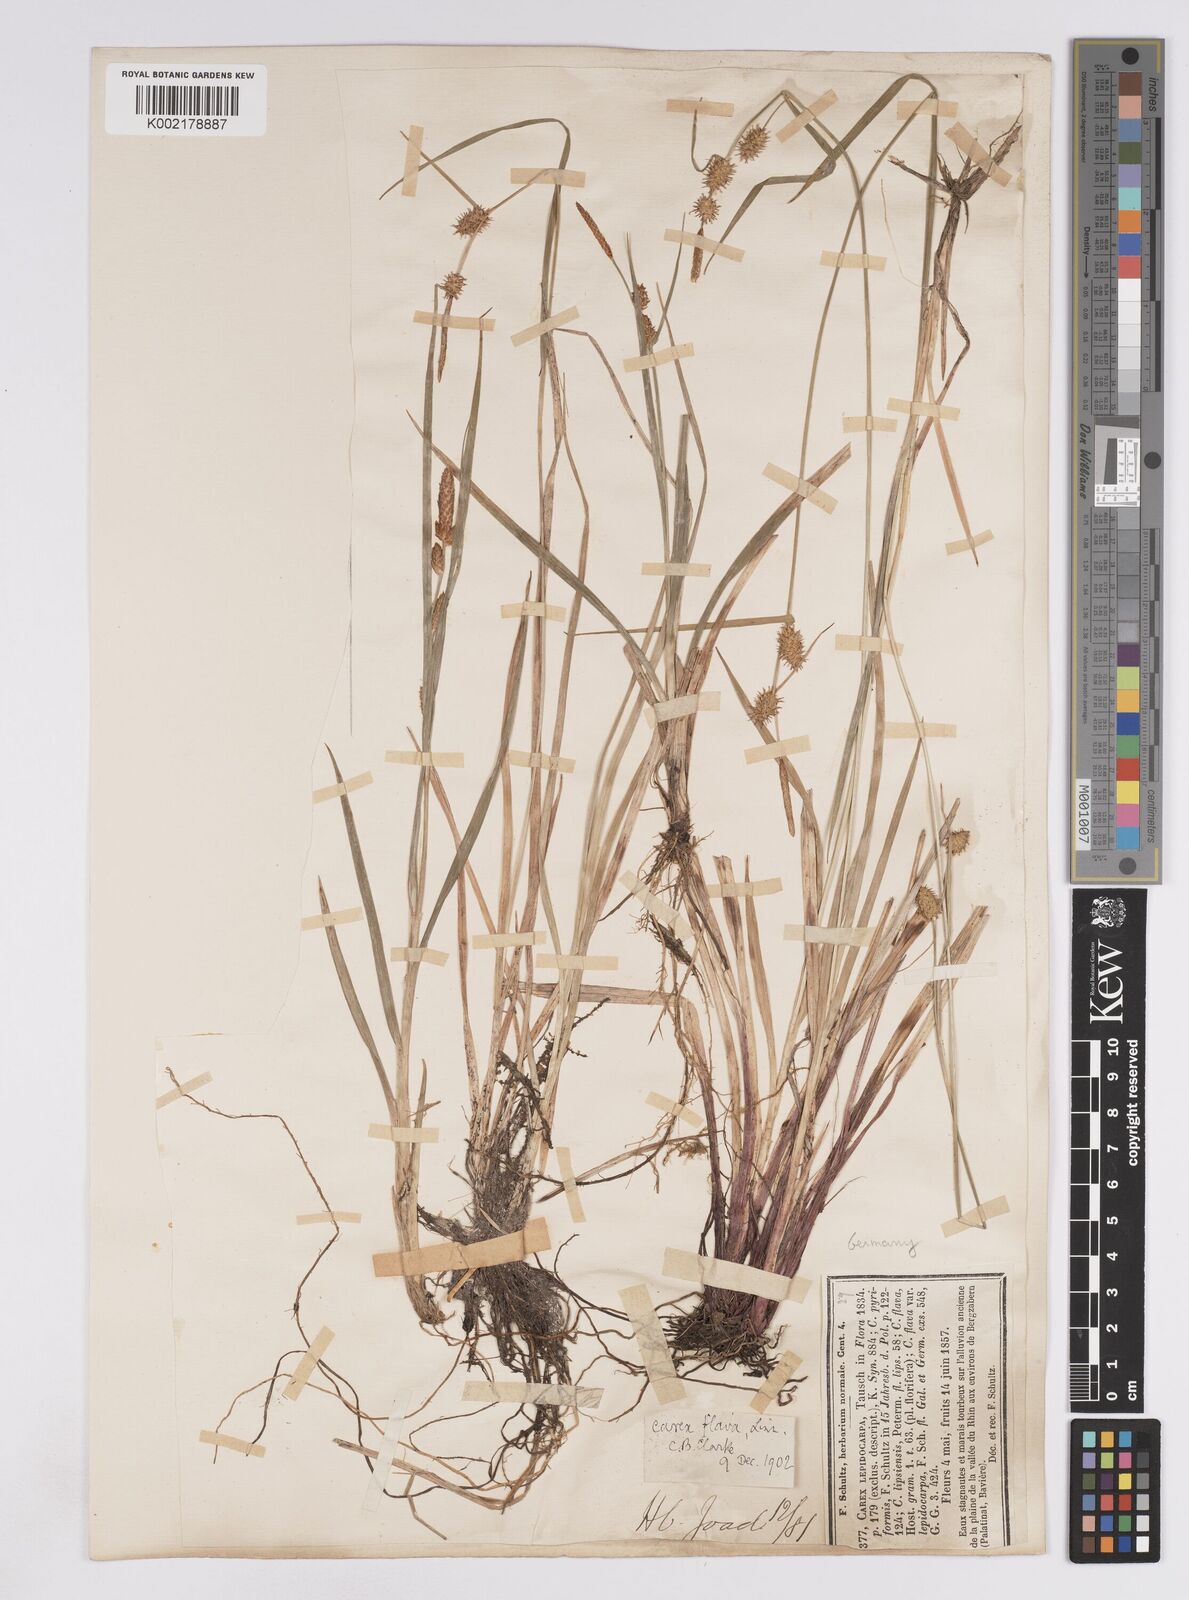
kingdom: Plantae
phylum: Tracheophyta
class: Liliopsida
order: Poales
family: Cyperaceae
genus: Carex
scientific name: Carex lepidocarpa
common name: Long-stalked yellow-sedge
